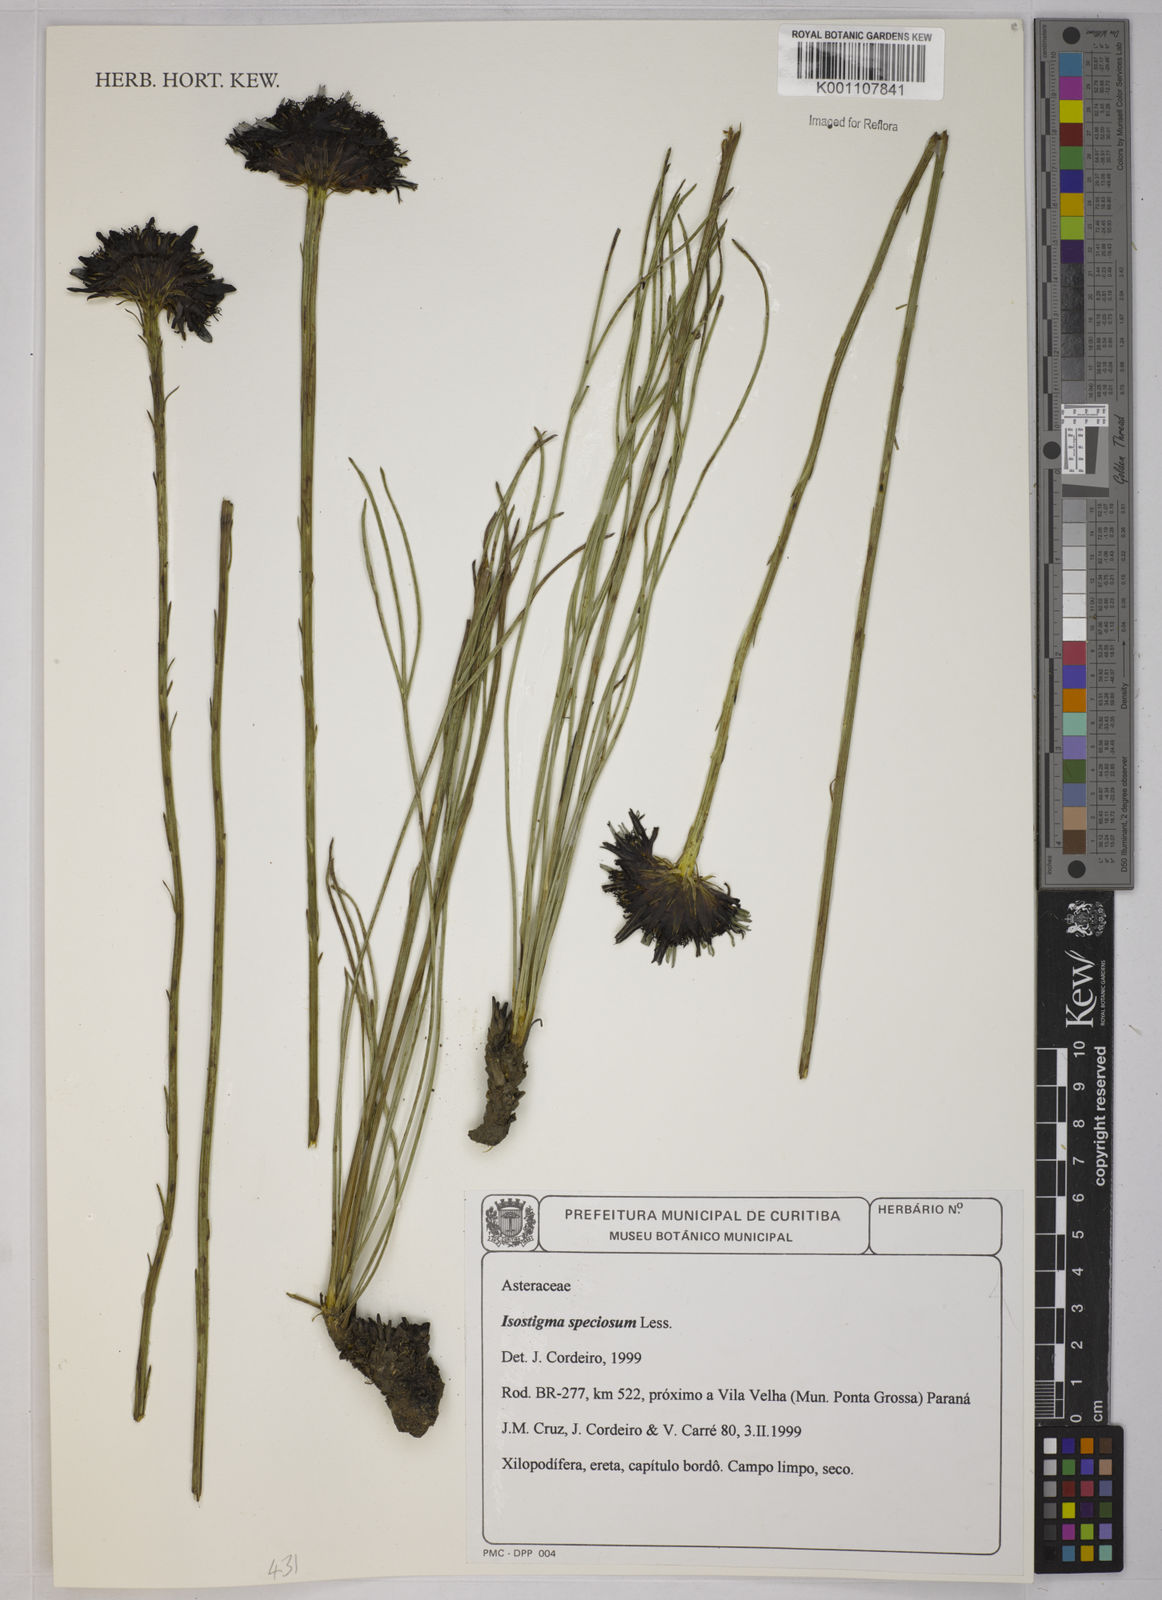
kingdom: Plantae
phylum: Tracheophyta
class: Magnoliopsida
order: Asterales
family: Asteraceae
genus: Isostigma
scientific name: Isostigma peucedanifolium
